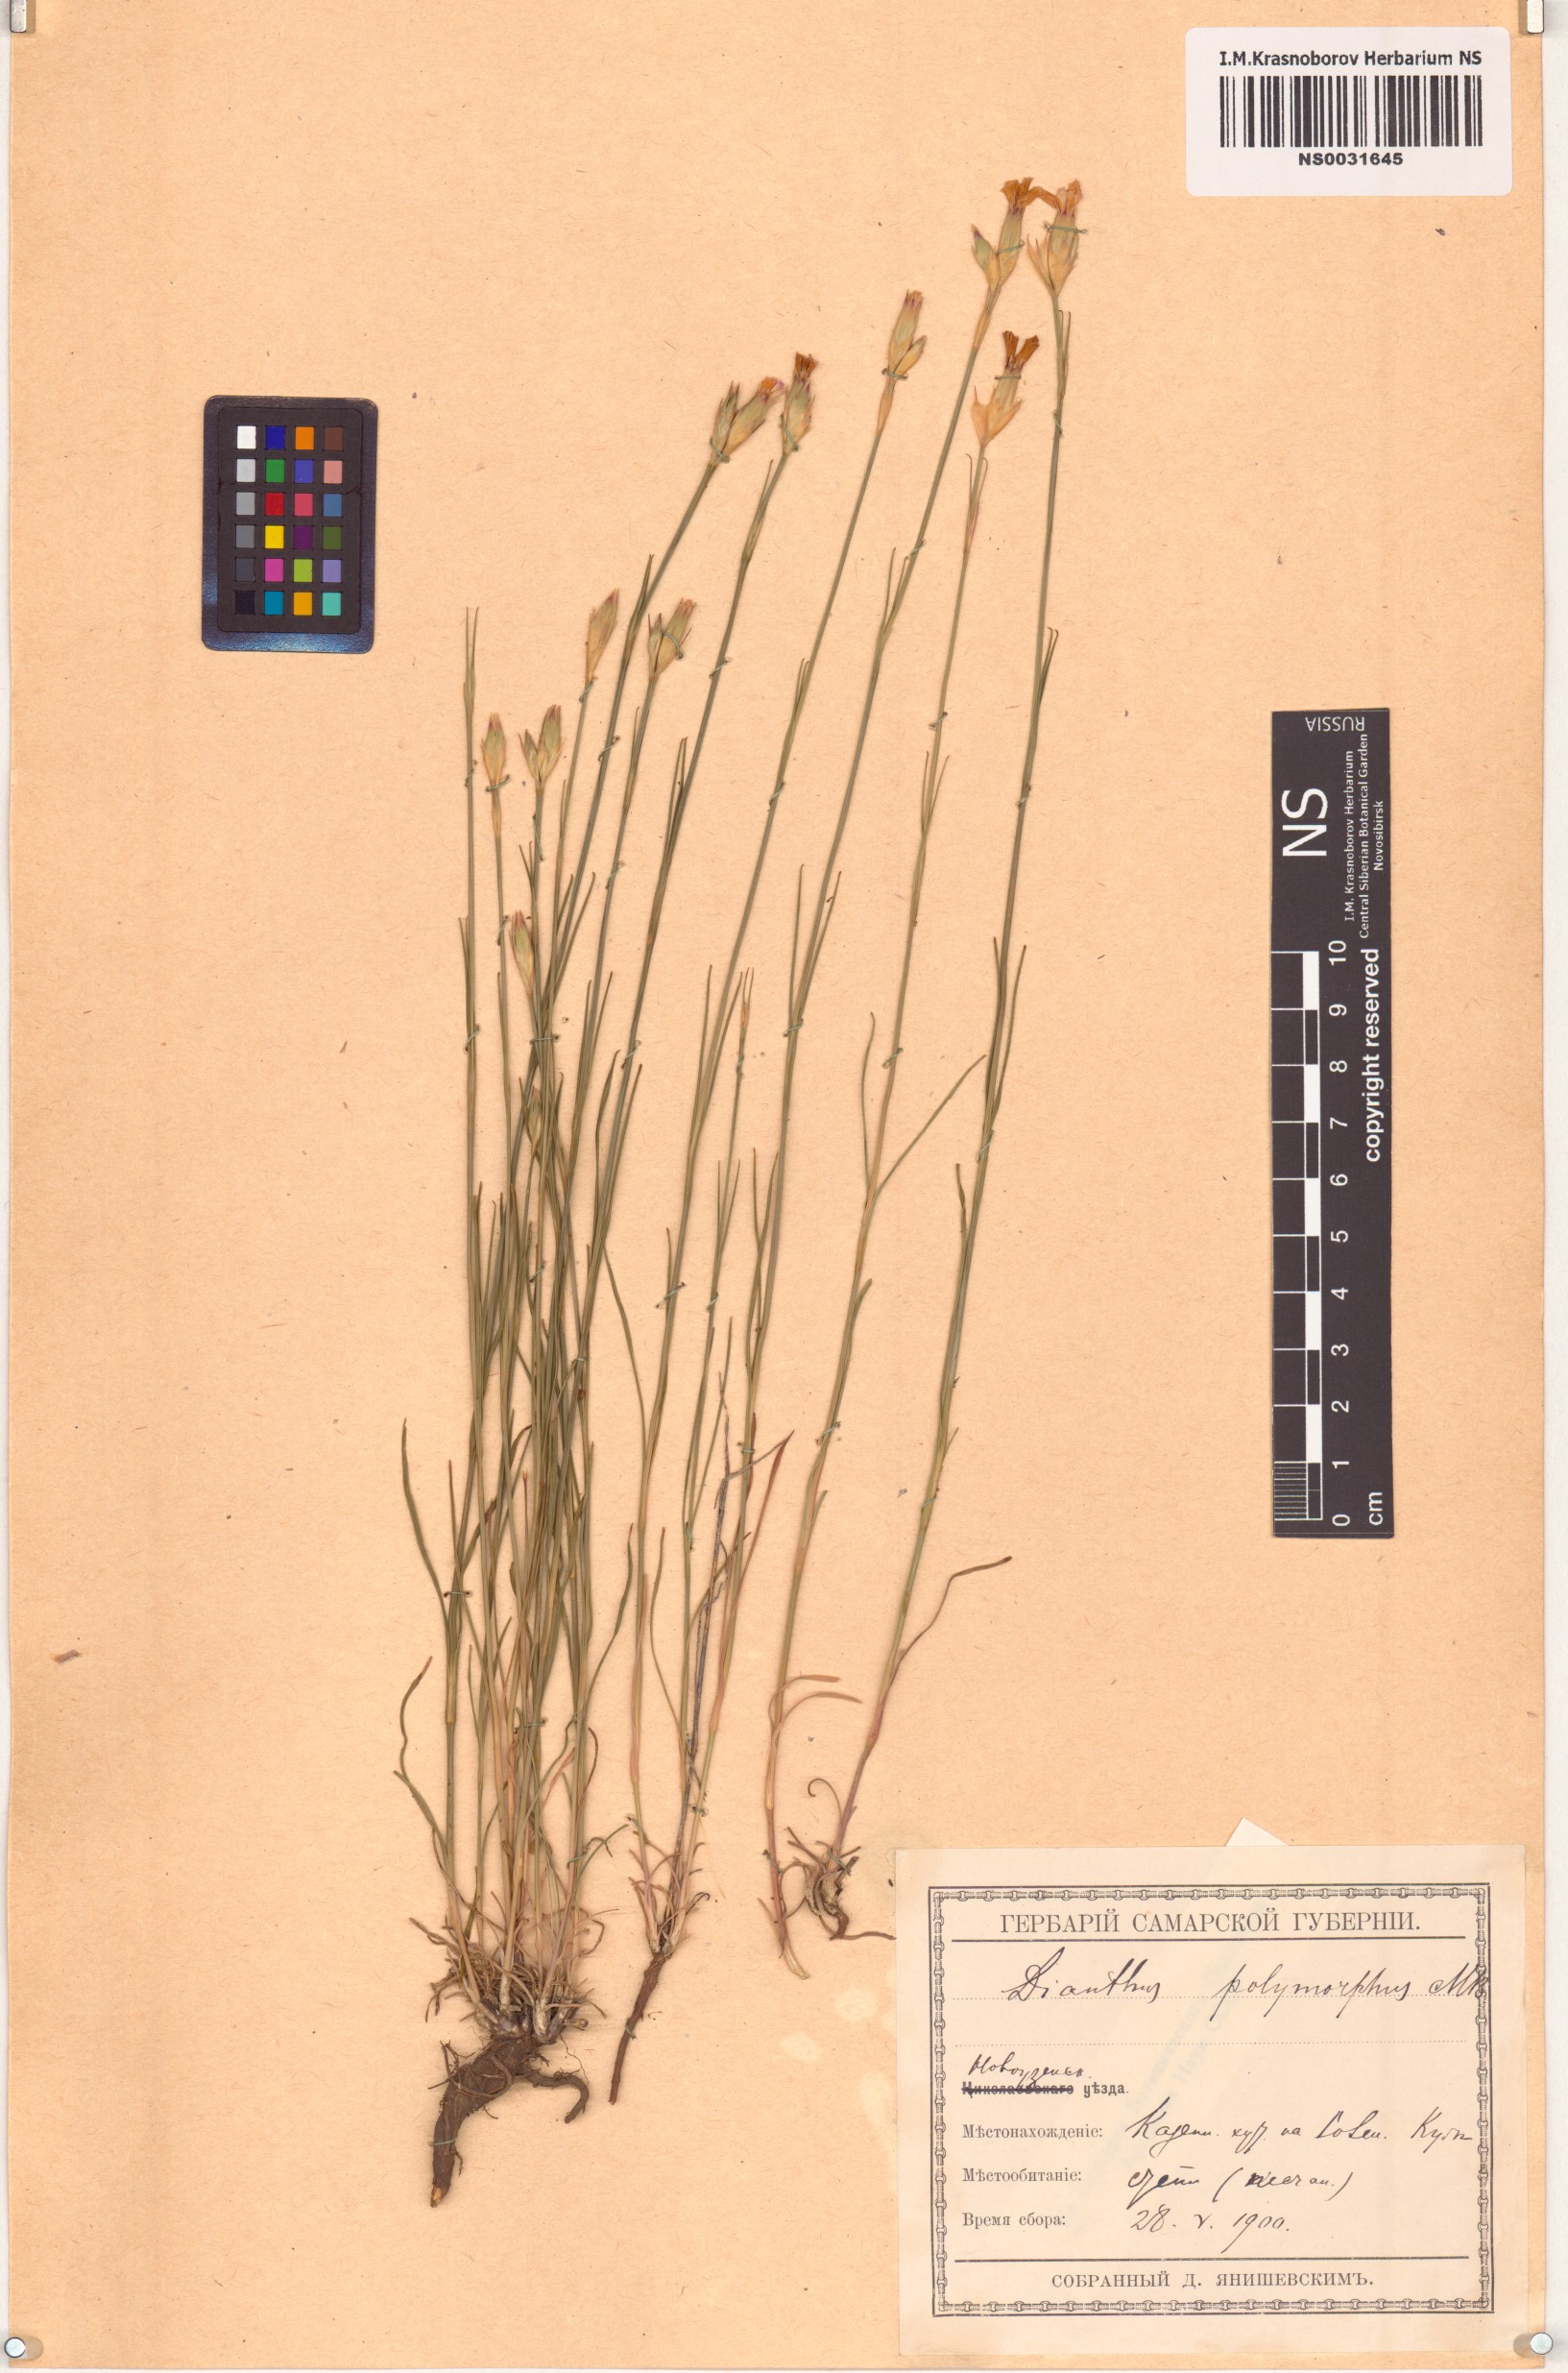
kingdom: Plantae
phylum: Tracheophyta
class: Magnoliopsida
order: Caryophyllales
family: Caryophyllaceae
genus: Dianthus
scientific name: Dianthus polymorphus
